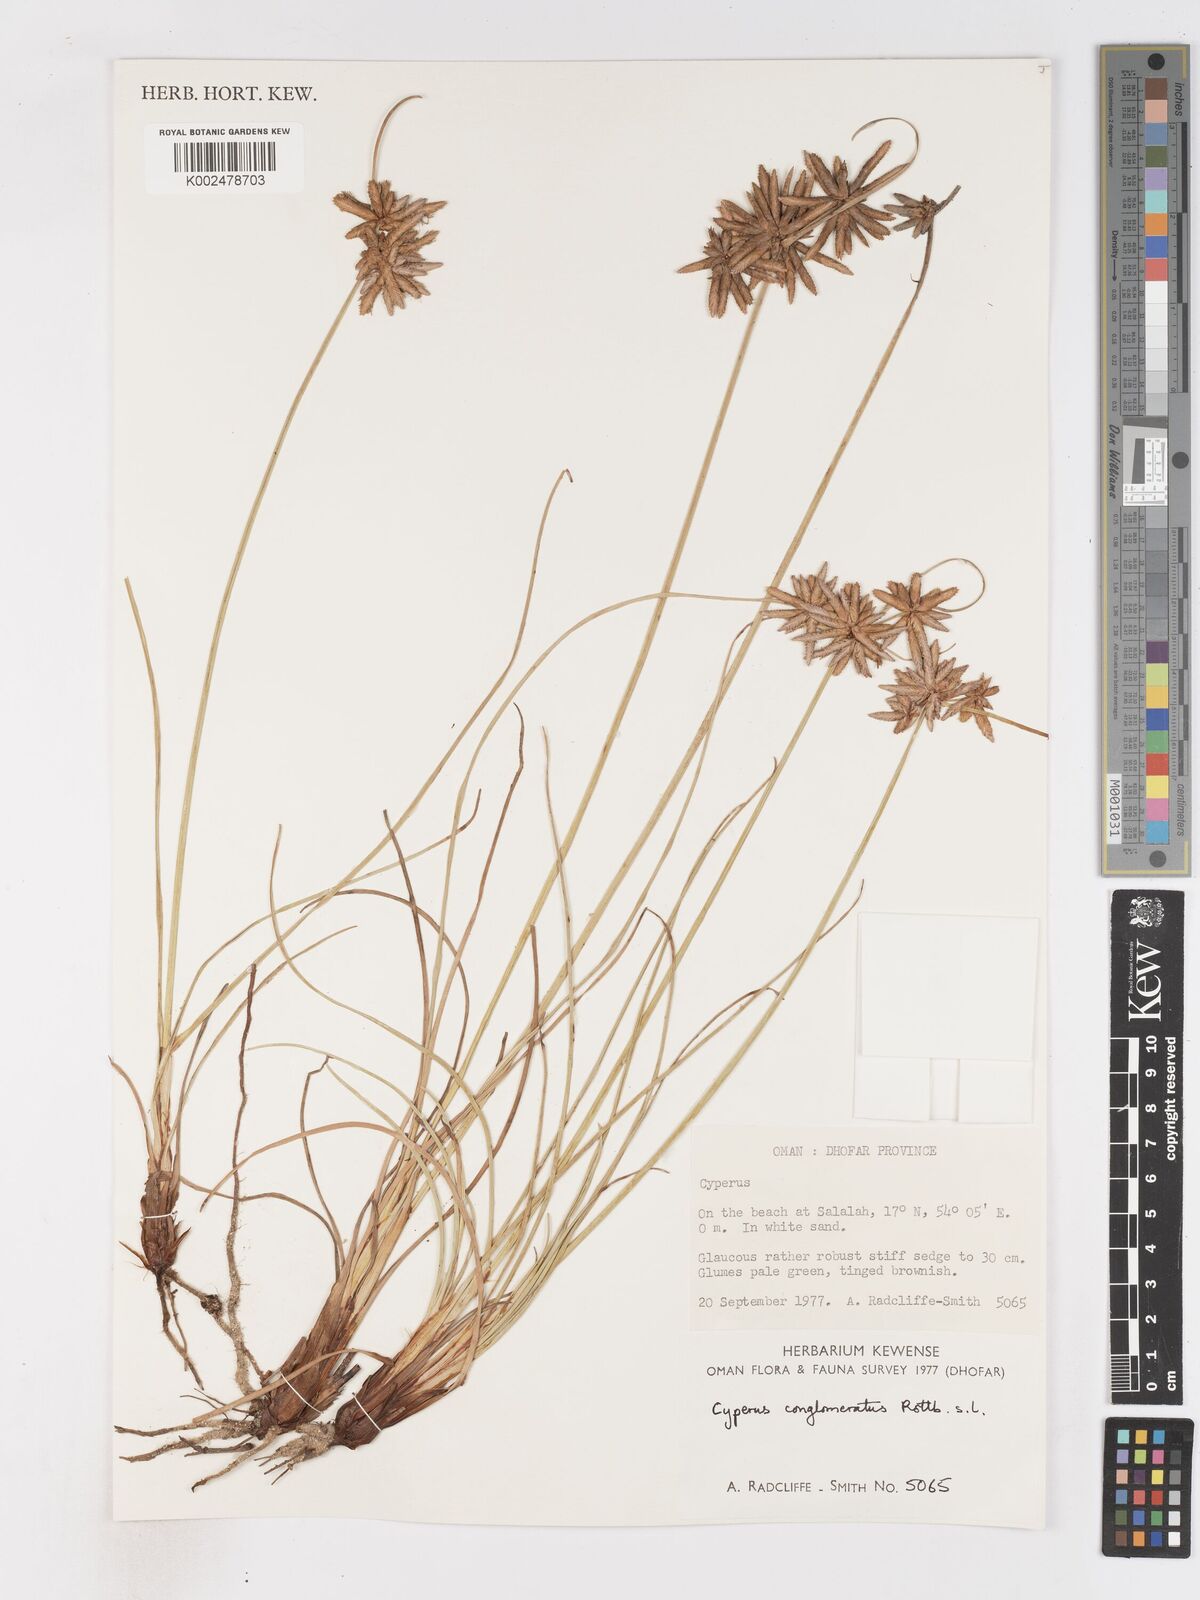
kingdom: Plantae
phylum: Tracheophyta
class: Liliopsida
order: Poales
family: Cyperaceae
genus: Cyperus
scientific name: Cyperus conglomeratus
